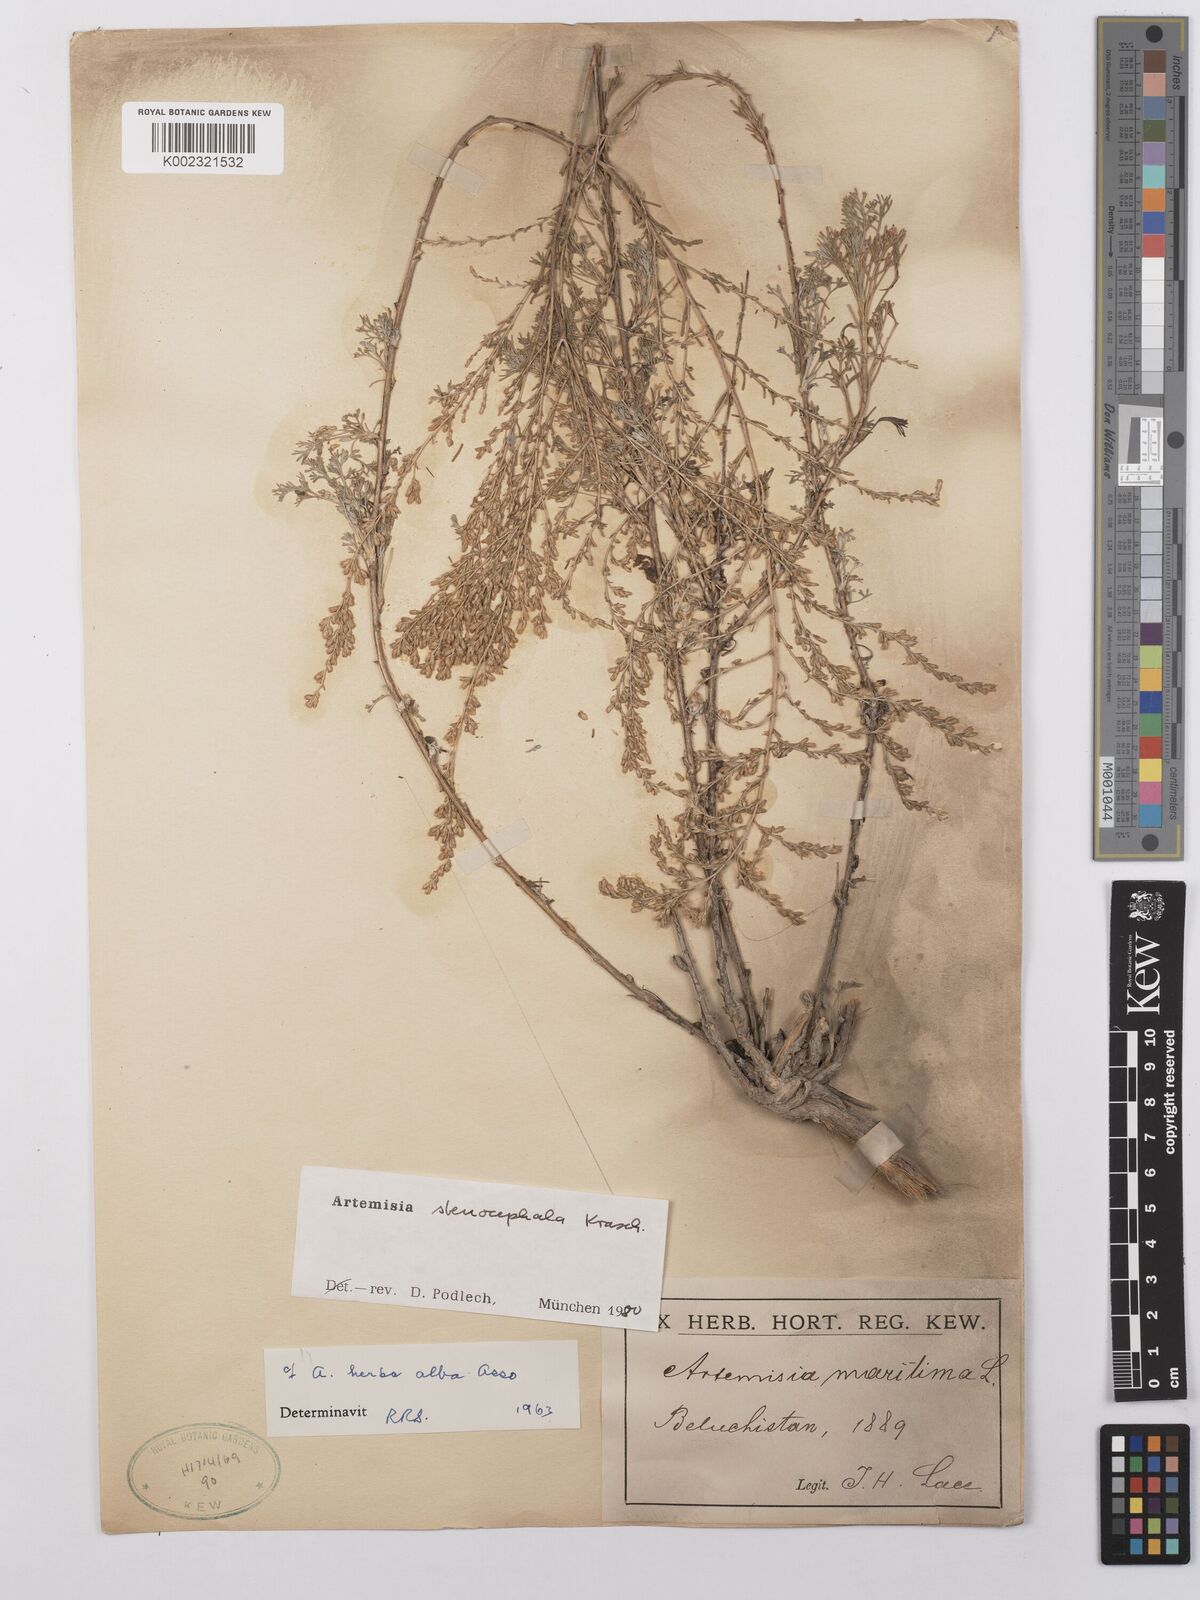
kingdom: Plantae
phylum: Tracheophyta
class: Magnoliopsida
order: Asterales
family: Asteraceae
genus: Artemisia
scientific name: Artemisia stenocephala
